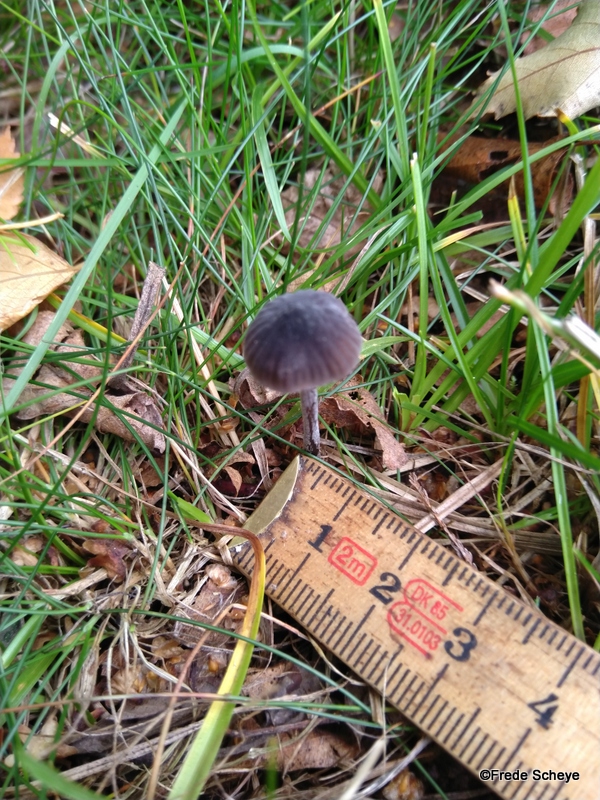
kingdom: Fungi
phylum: Basidiomycota
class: Agaricomycetes
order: Agaricales
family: Mycenaceae
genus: Mycena
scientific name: Mycena galopus
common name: hvidmælket huesvamp
